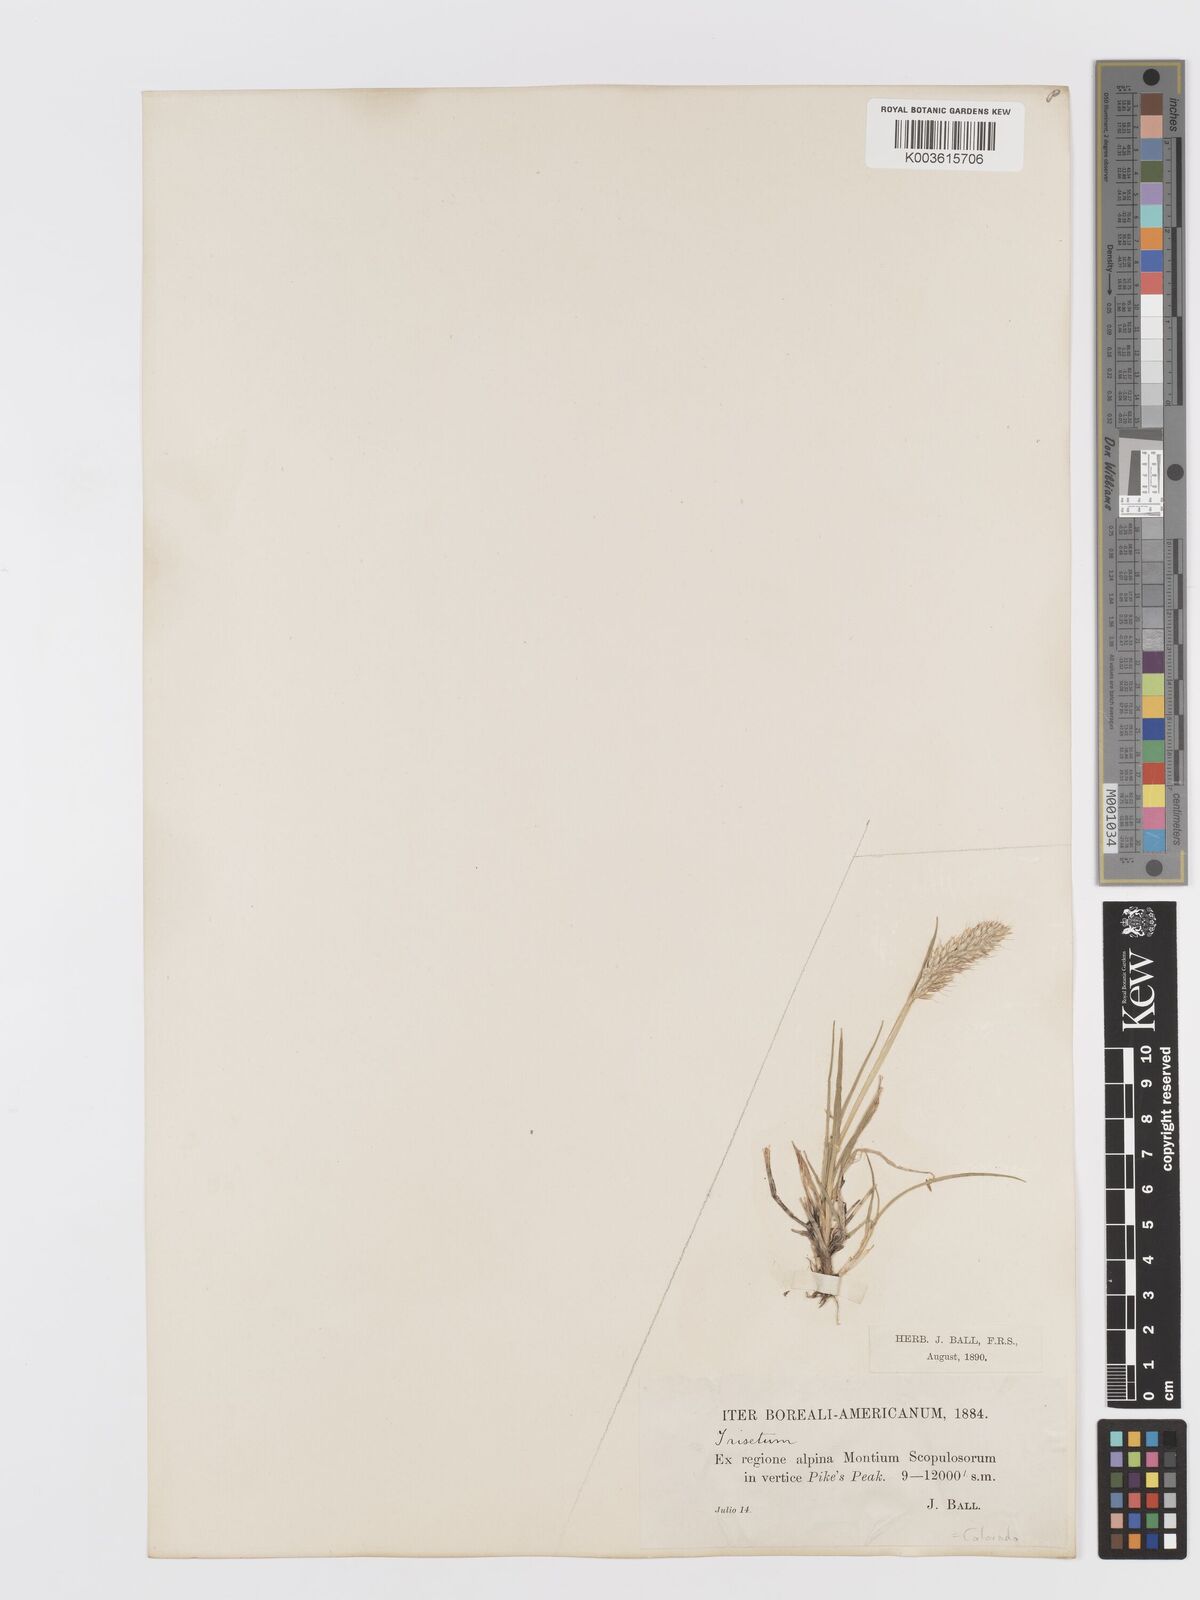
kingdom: Plantae
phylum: Tracheophyta
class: Liliopsida
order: Poales
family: Poaceae
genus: Koeleria
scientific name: Koeleria spicata
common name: Mountain trisetum
